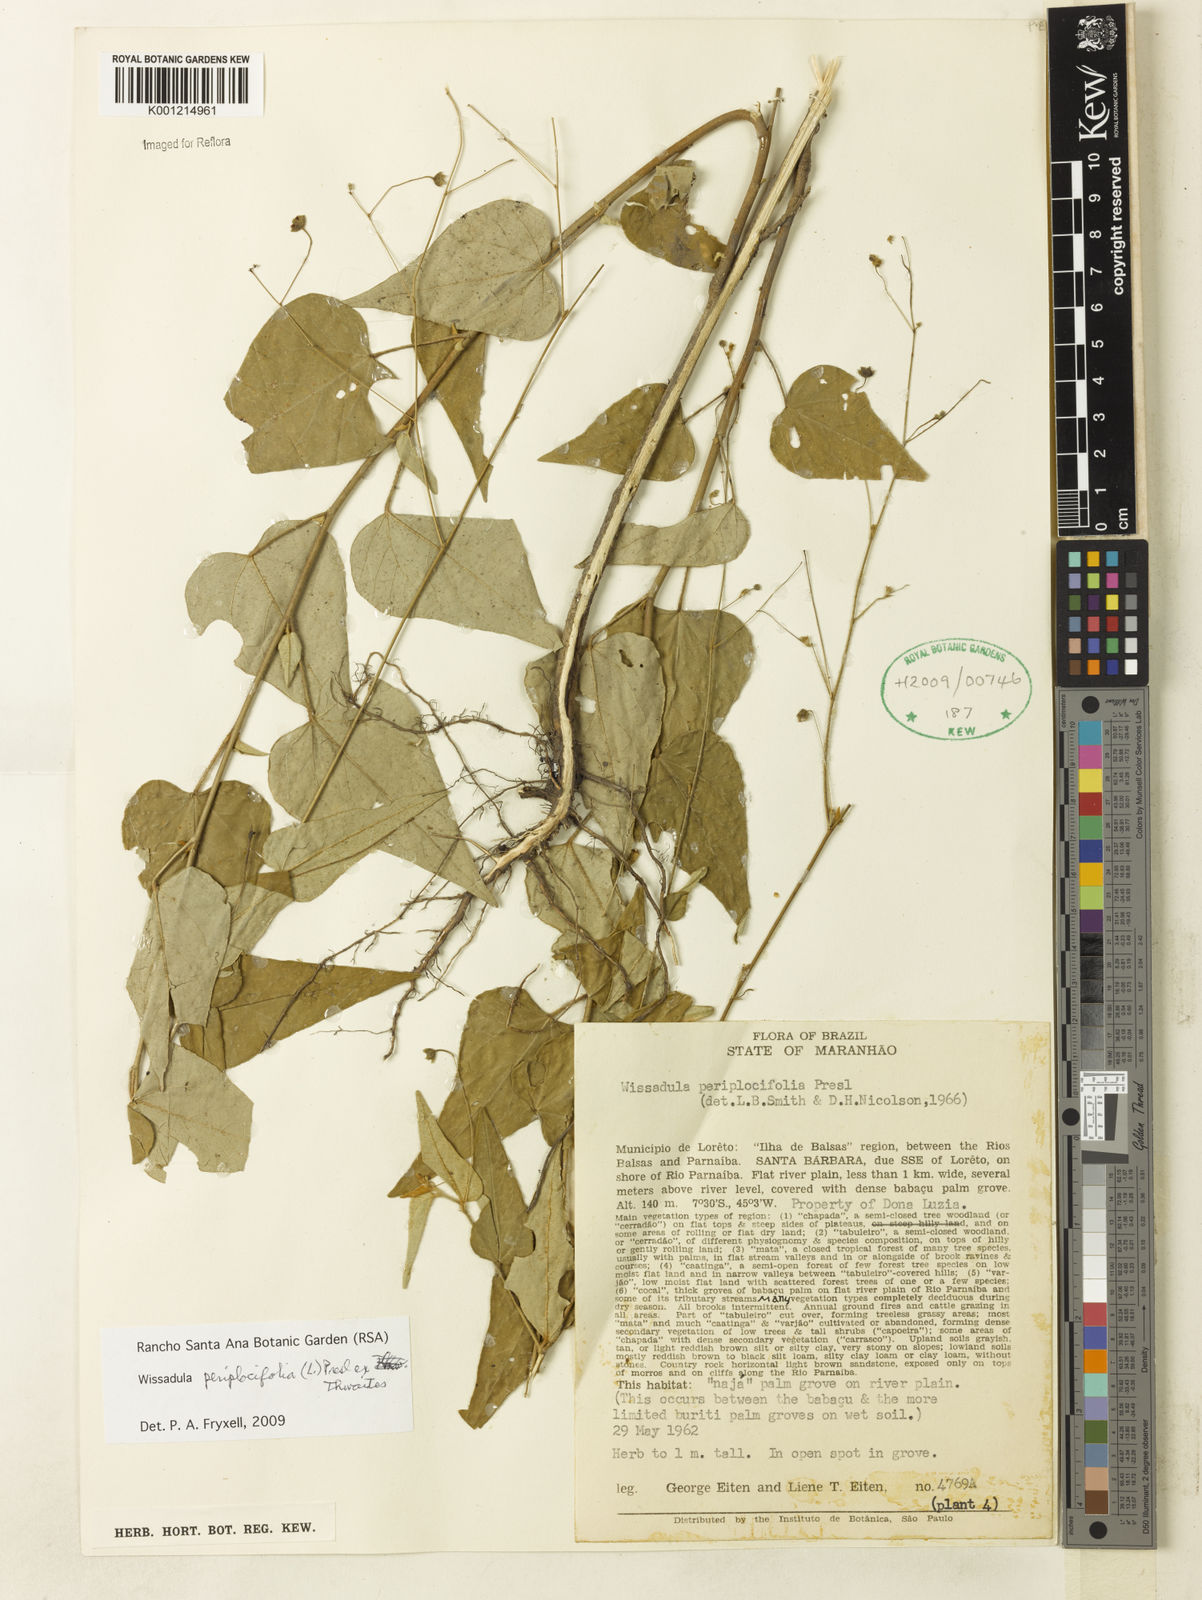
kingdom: Plantae
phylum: Tracheophyta
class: Magnoliopsida
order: Malvales
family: Malvaceae
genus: Wissadula
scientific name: Wissadula periplocifolia
